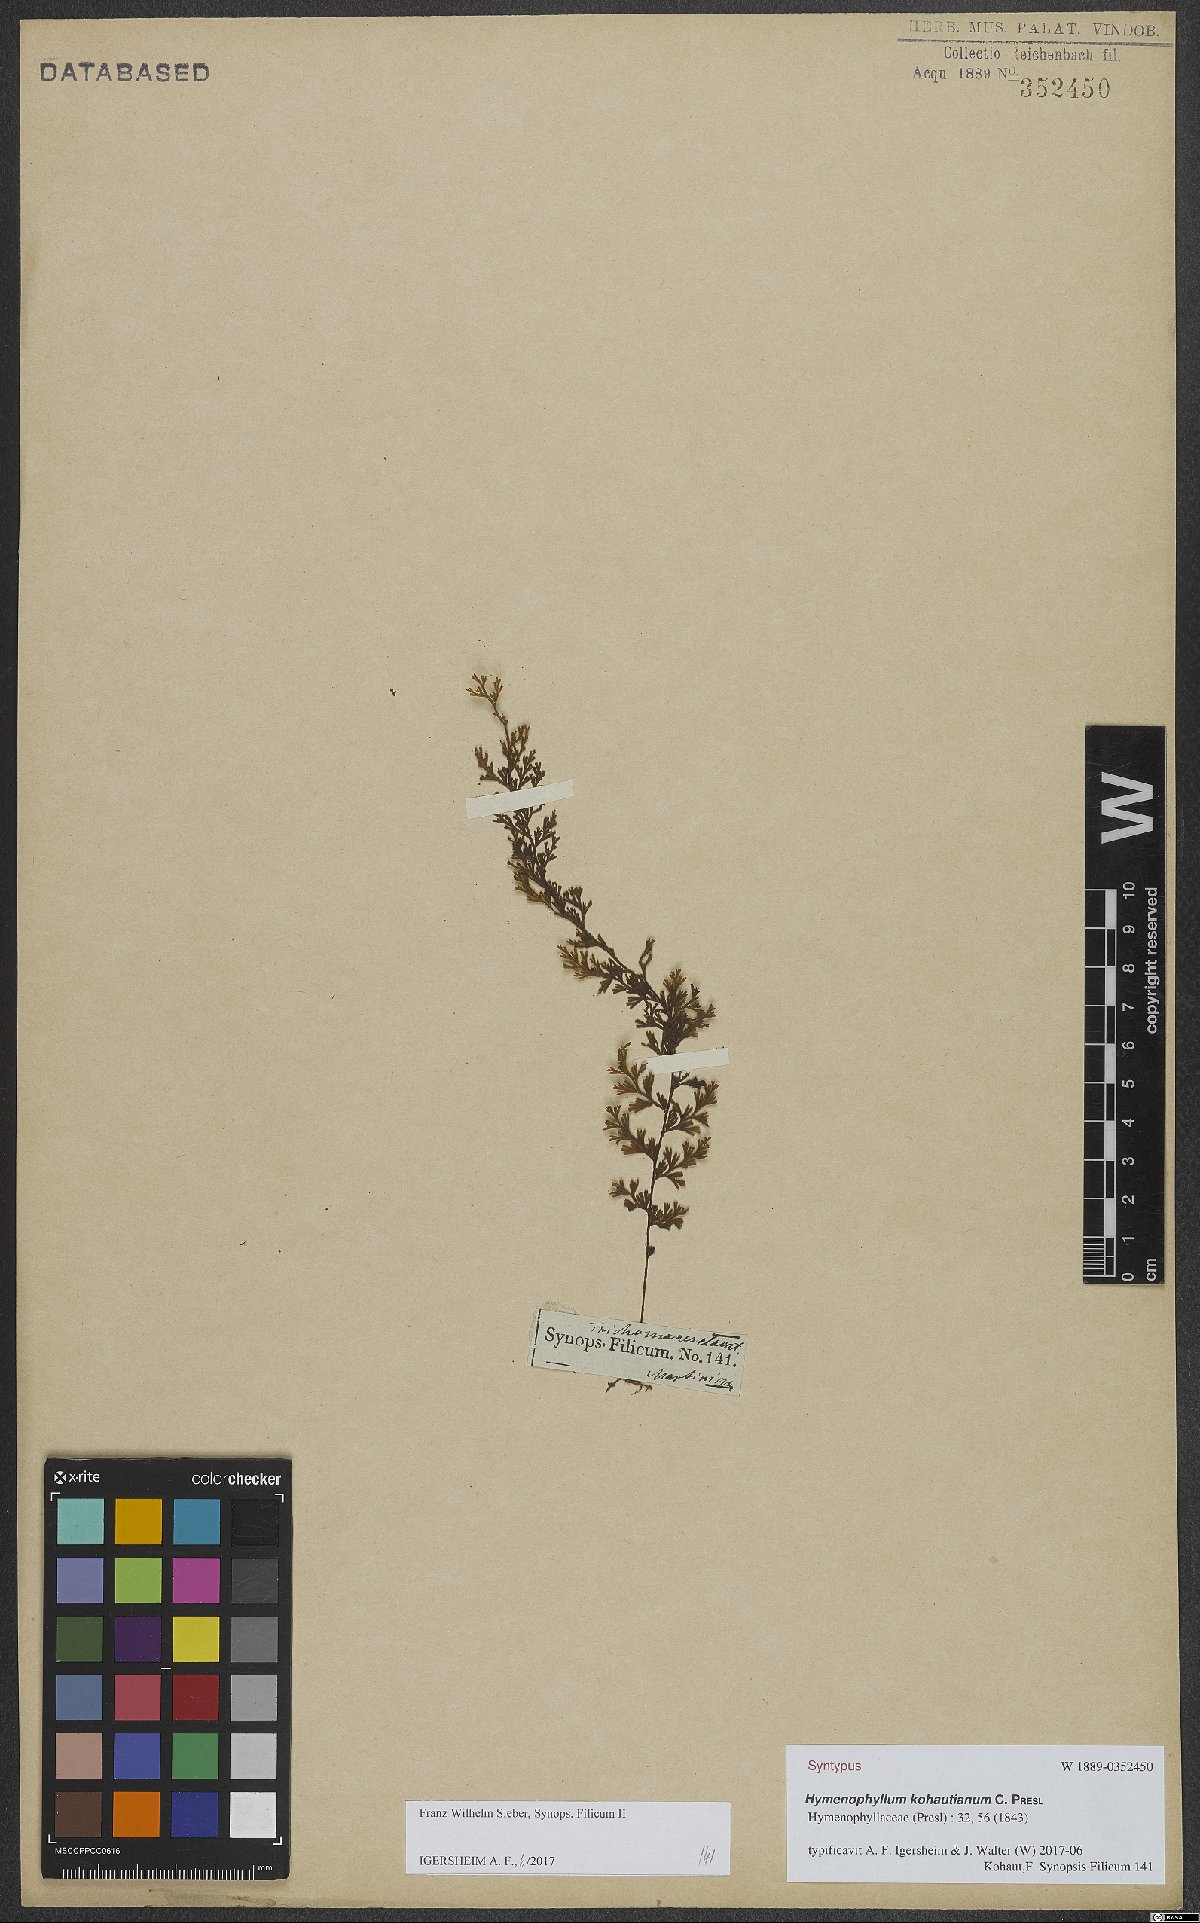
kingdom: Plantae
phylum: Tracheophyta
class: Polypodiopsida
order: Hymenophyllales
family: Hymenophyllaceae
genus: Hymenophyllum
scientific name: Hymenophyllum protrusum
